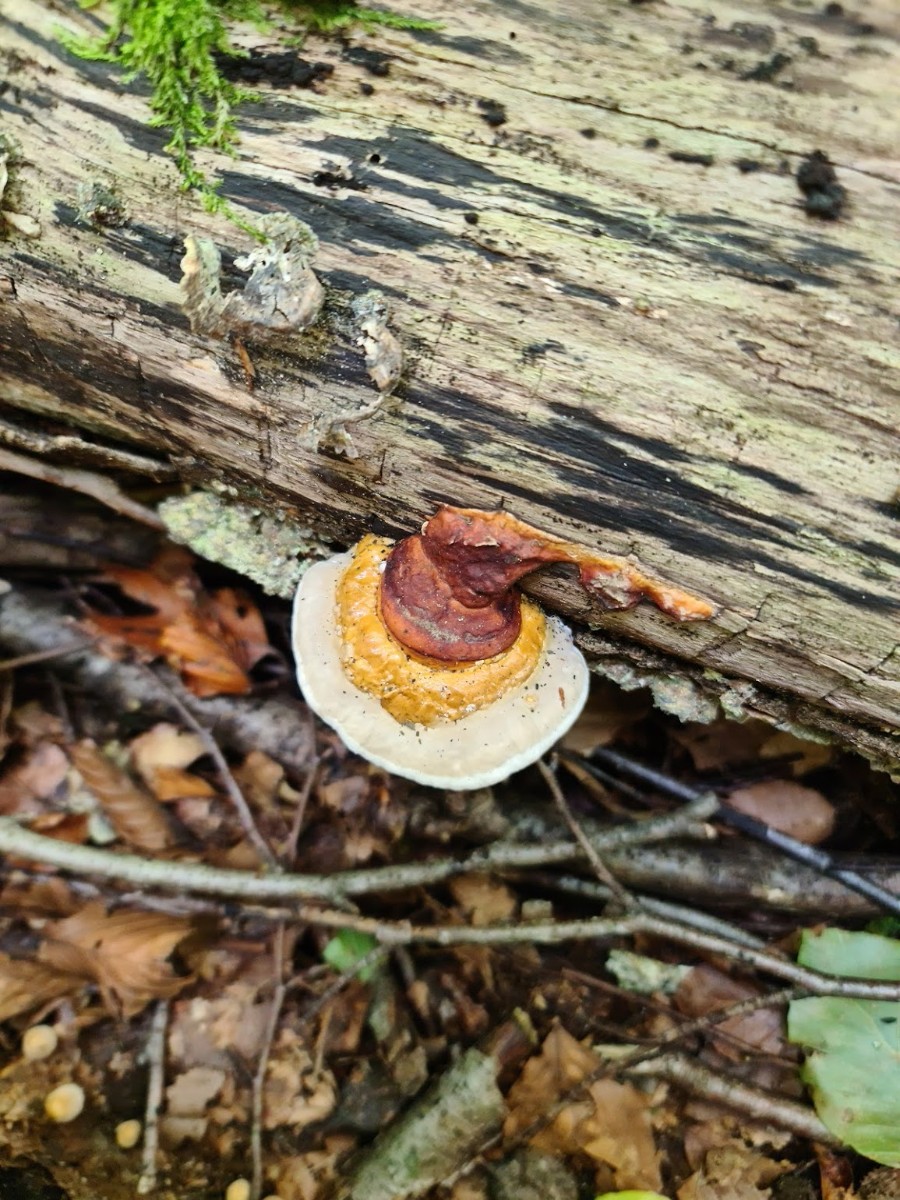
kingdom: Fungi
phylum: Basidiomycota
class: Agaricomycetes
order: Polyporales
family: Fomitopsidaceae
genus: Fomitopsis
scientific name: Fomitopsis pinicola
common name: randbæltet hovporesvamp
